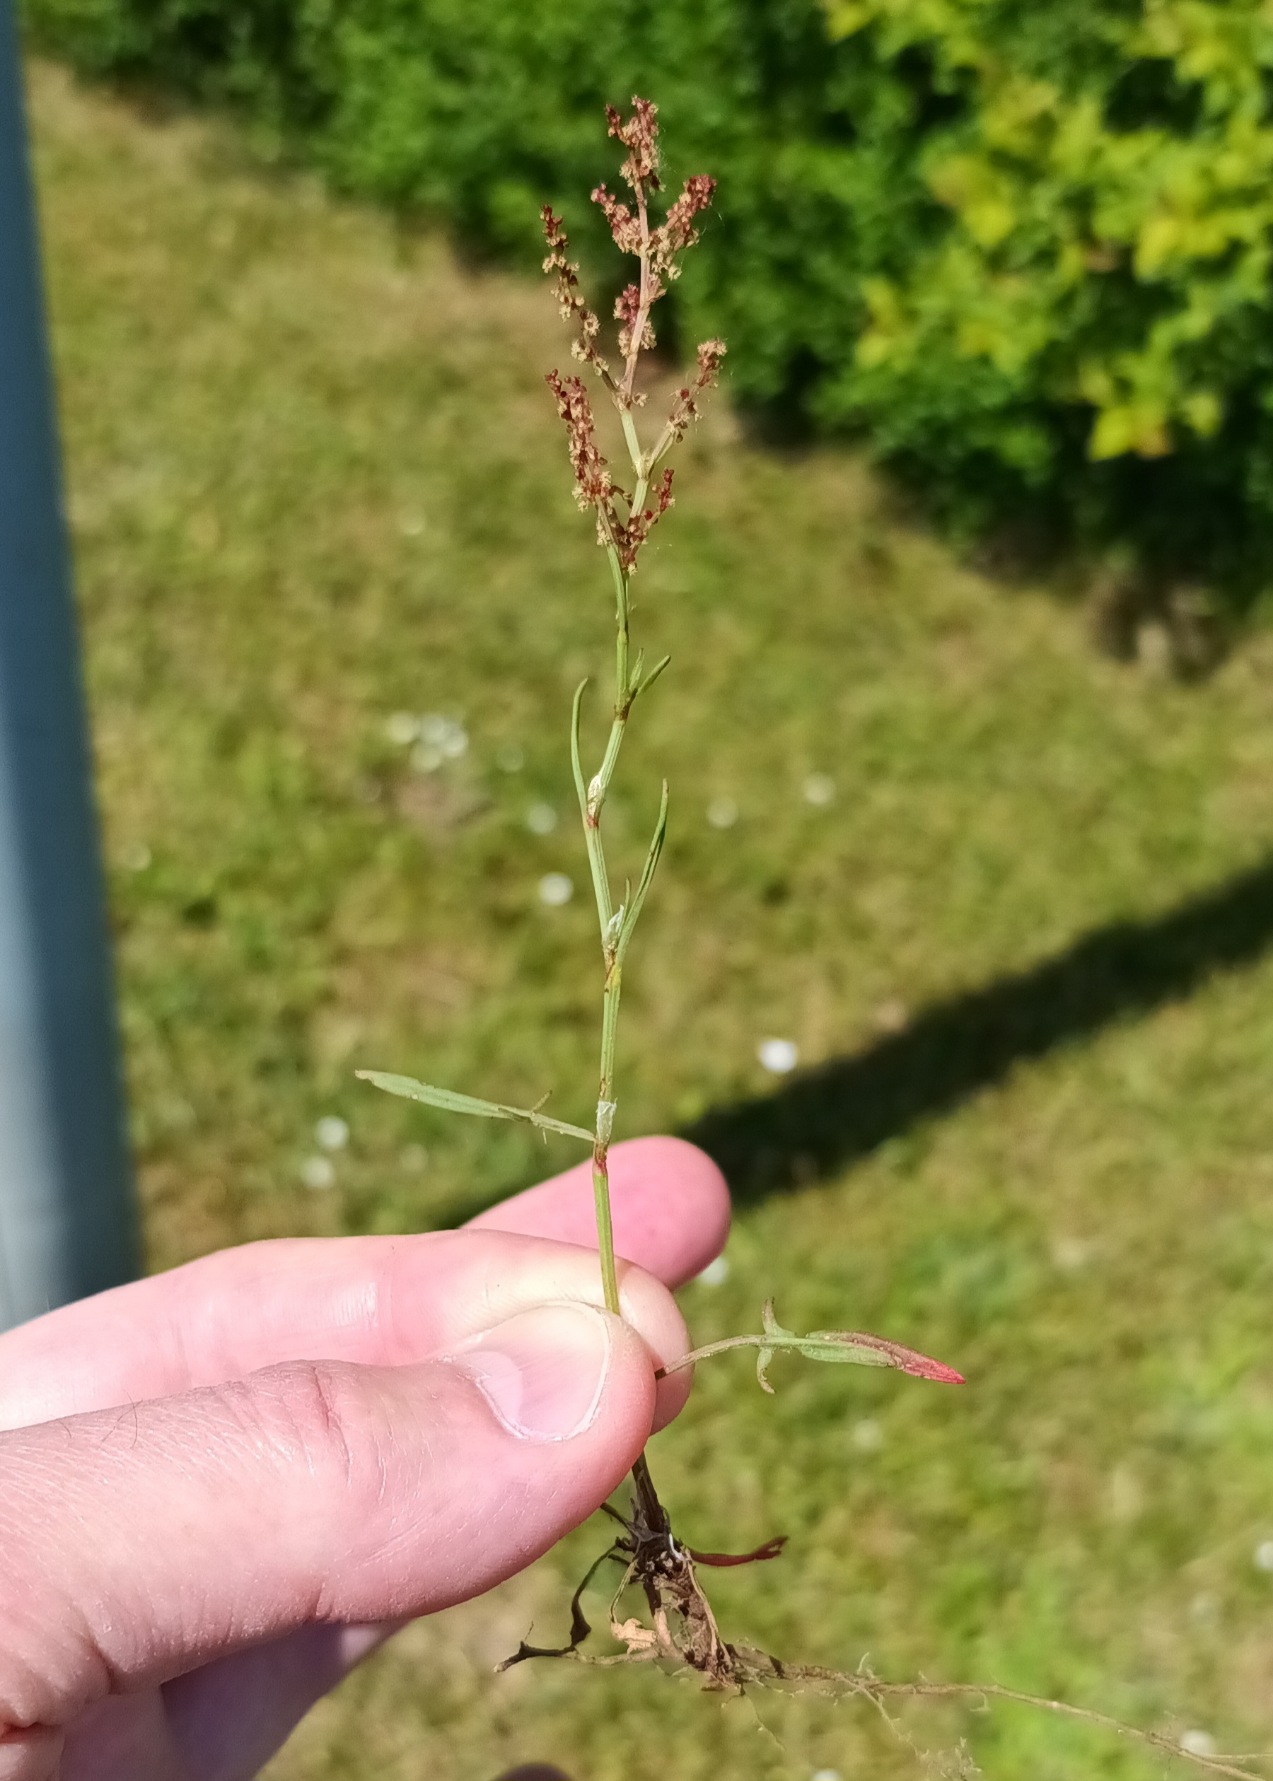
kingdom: Plantae
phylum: Tracheophyta
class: Magnoliopsida
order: Caryophyllales
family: Polygonaceae
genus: Rumex
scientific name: Rumex acetosella
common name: Rødknæ
